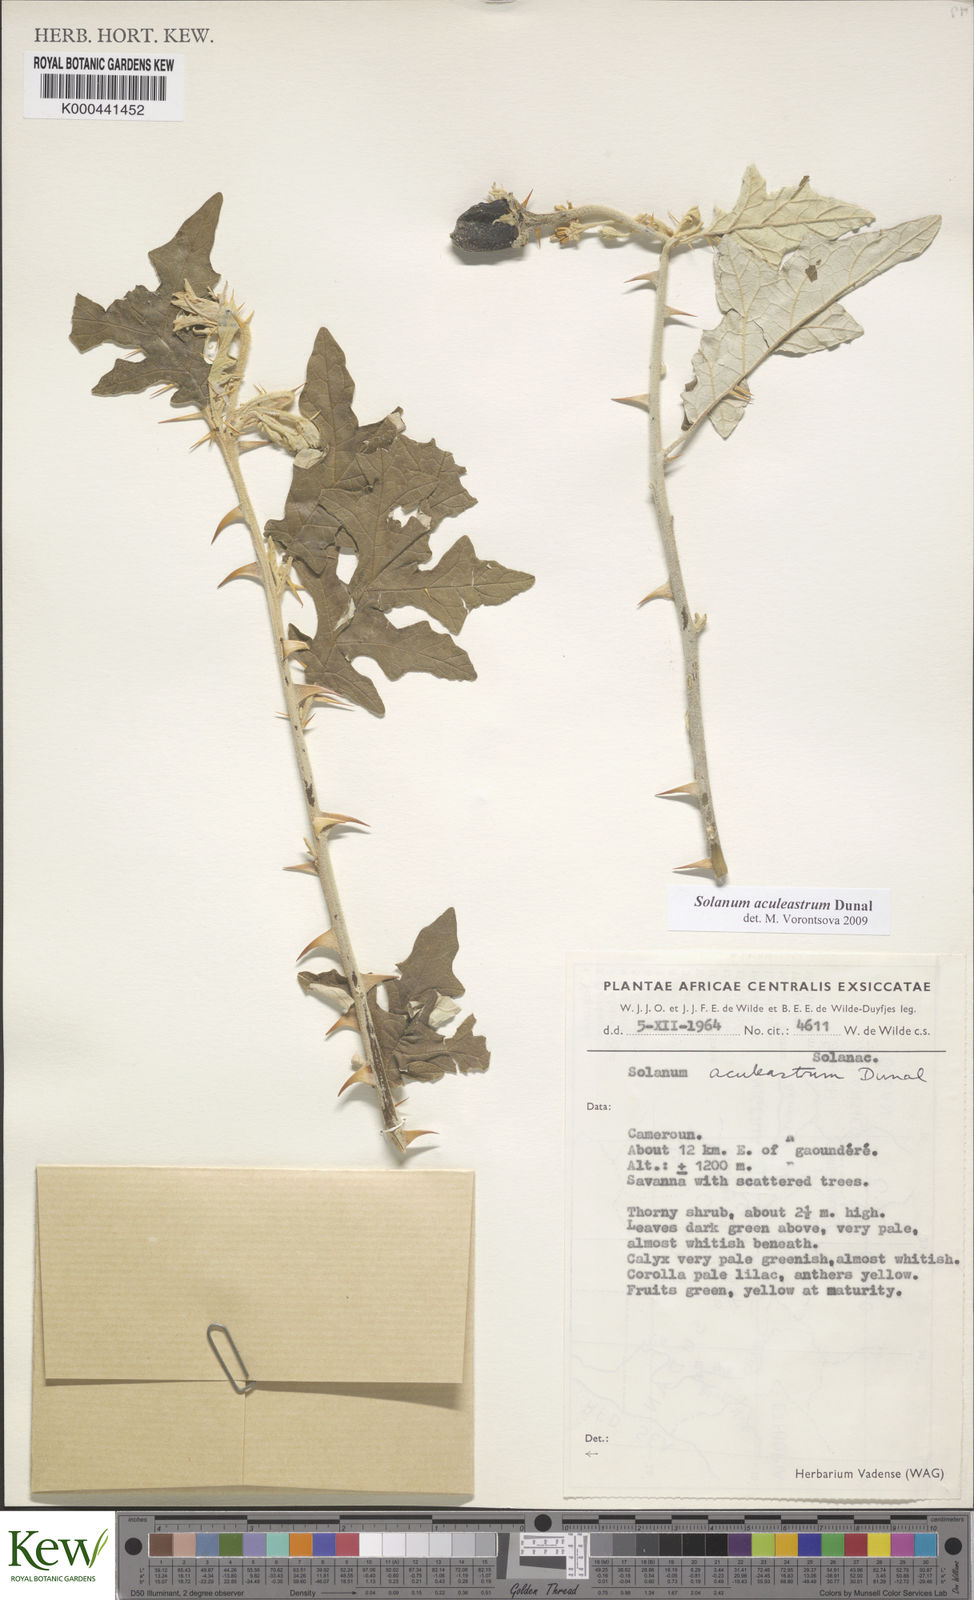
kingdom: Plantae
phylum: Tracheophyta
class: Magnoliopsida
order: Solanales
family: Solanaceae
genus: Solanum
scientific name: Solanum aculeastrum
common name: Goat bitter-apple
